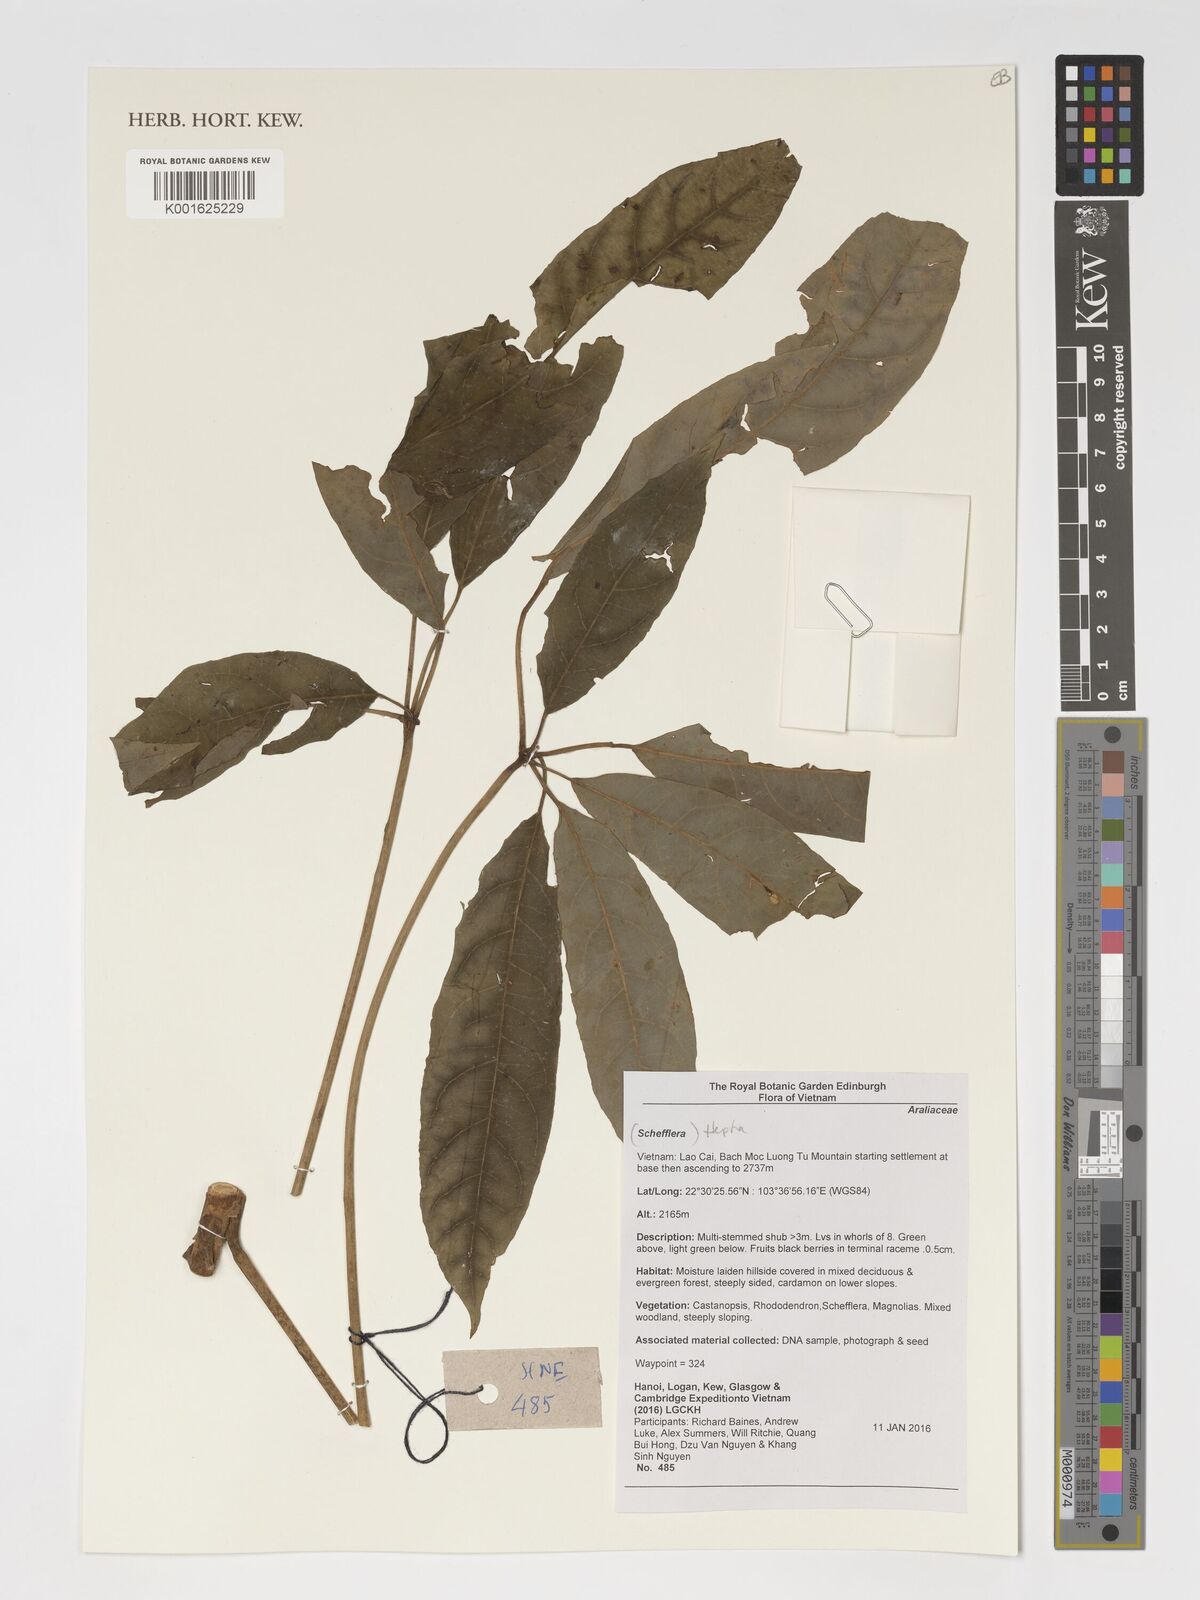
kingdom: Plantae
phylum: Tracheophyta
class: Magnoliopsida
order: Apiales
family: Araliaceae
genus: Schefflera
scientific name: Schefflera
